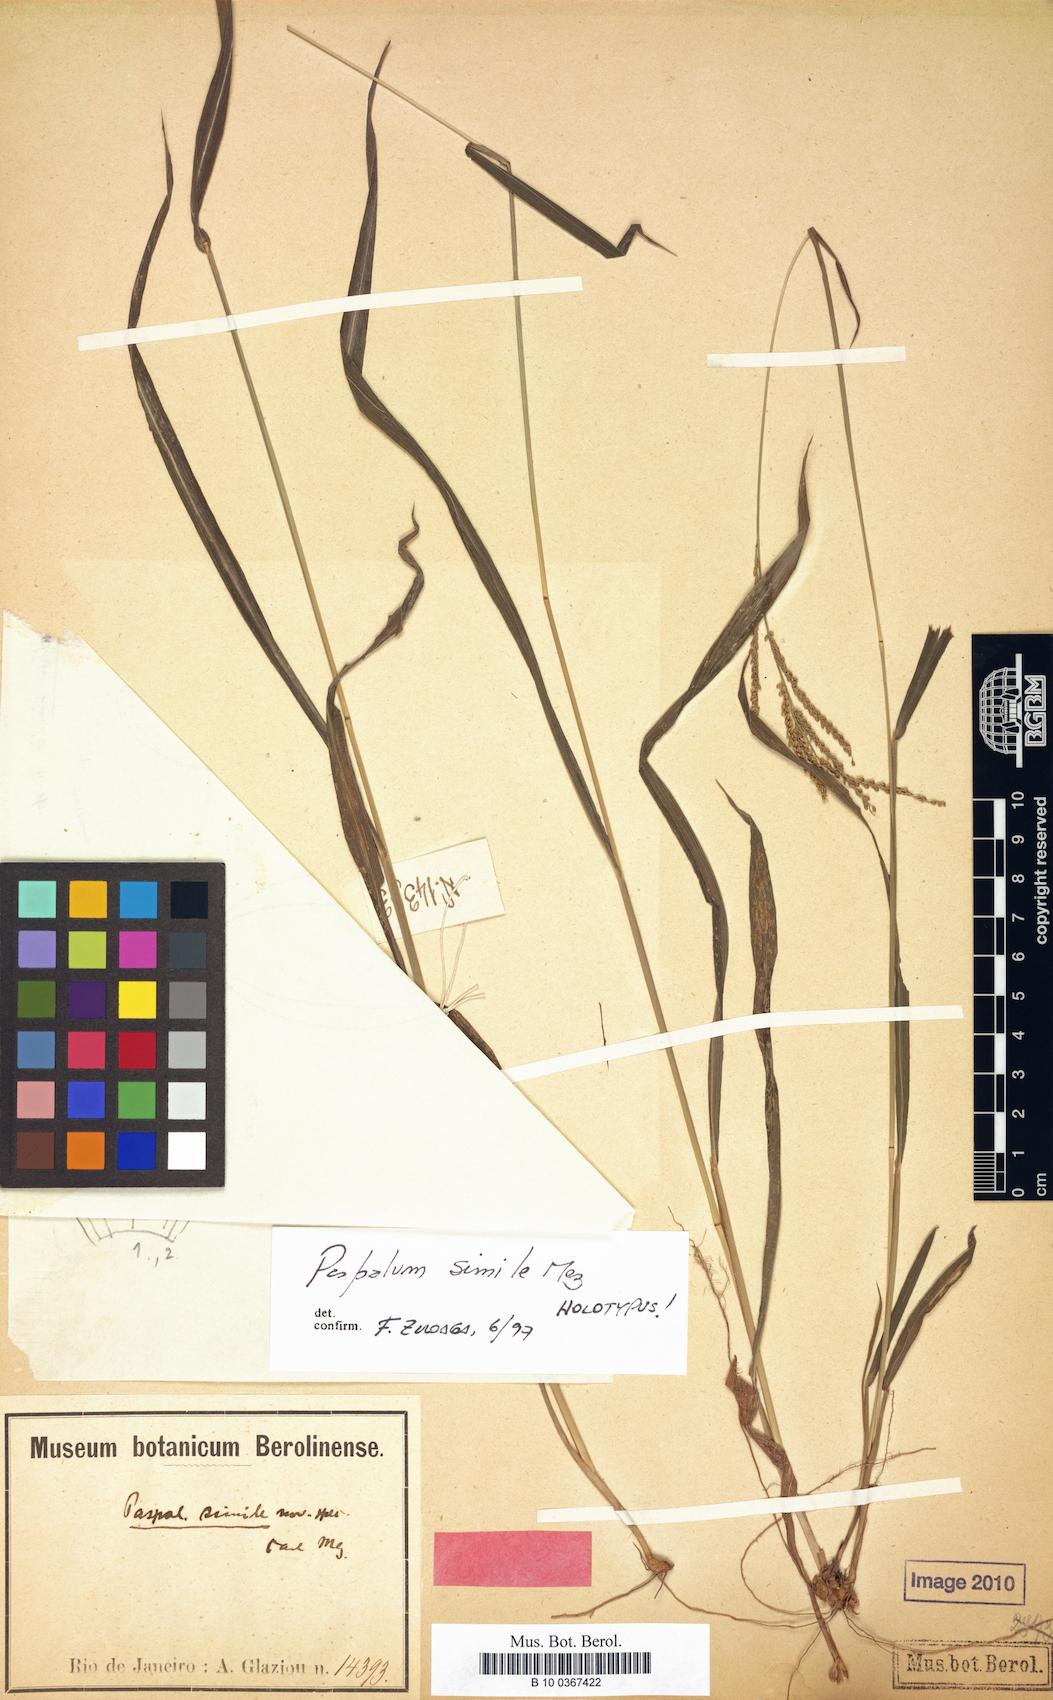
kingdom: Plantae
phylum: Tracheophyta
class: Liliopsida
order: Poales
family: Poaceae
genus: Paspalum
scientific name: Paspalum molle
